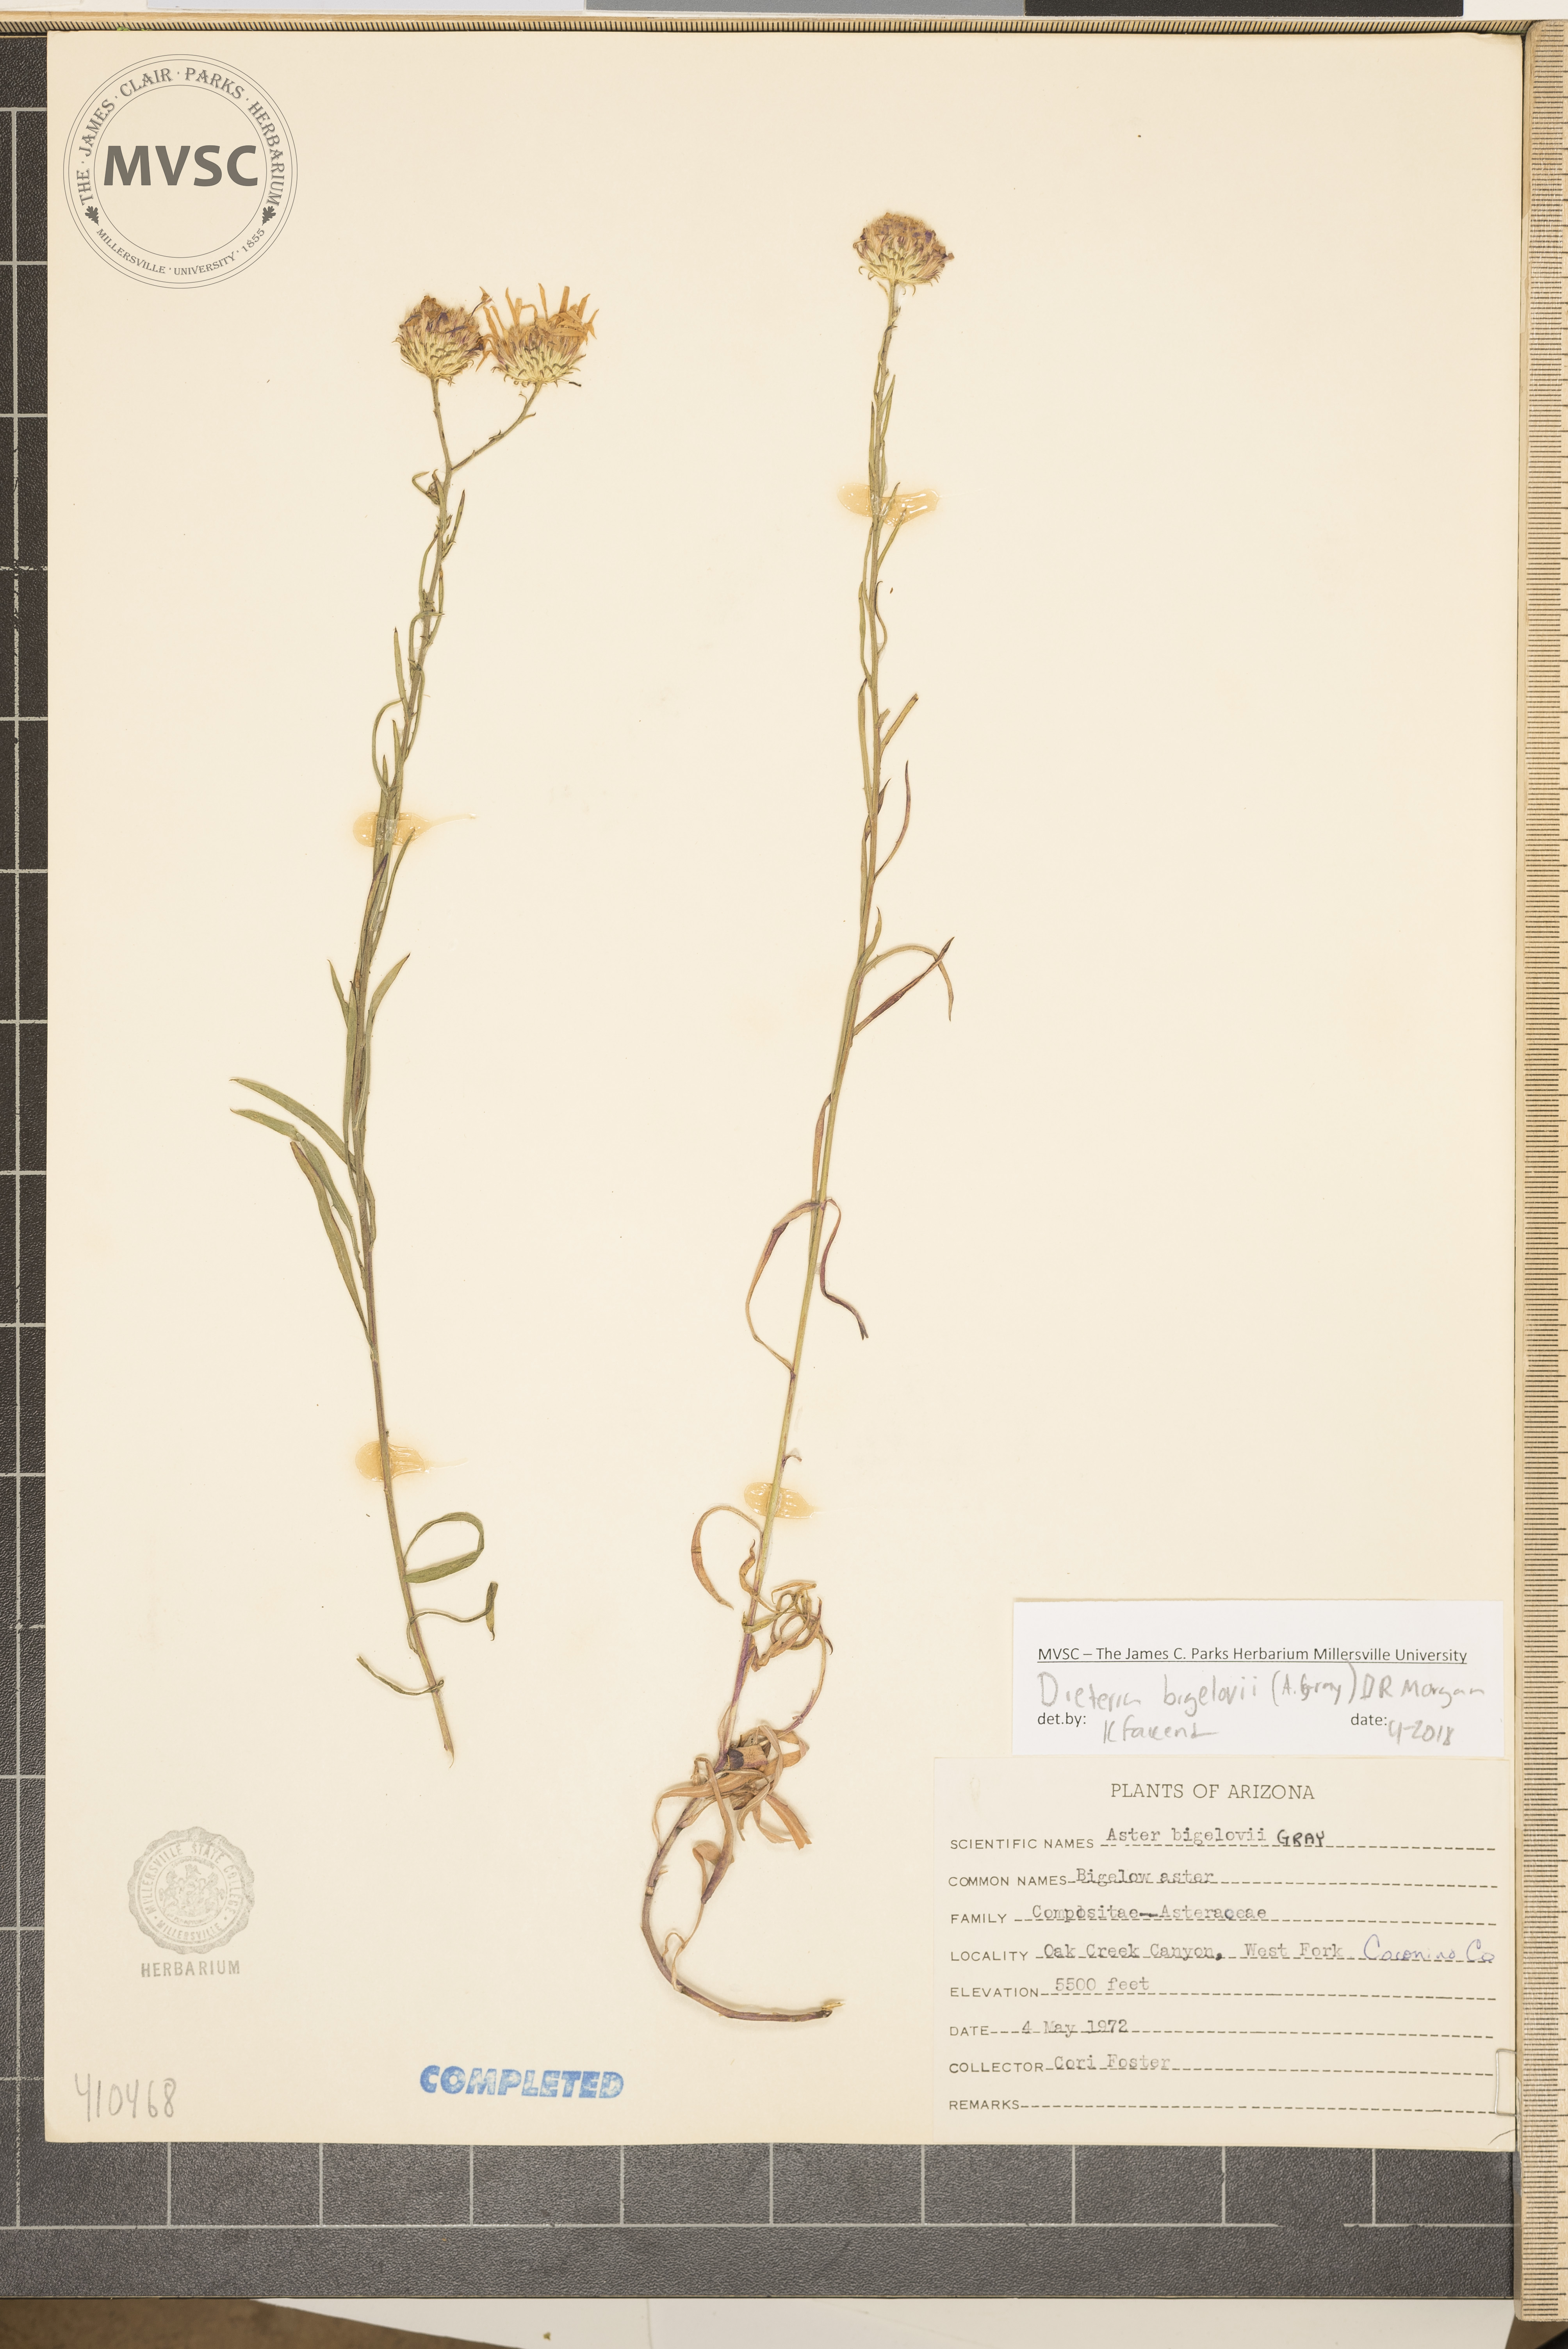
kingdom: Plantae
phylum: Tracheophyta
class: Magnoliopsida
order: Asterales
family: Asteraceae
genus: Dieteria
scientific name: Dieteria bigelovii
